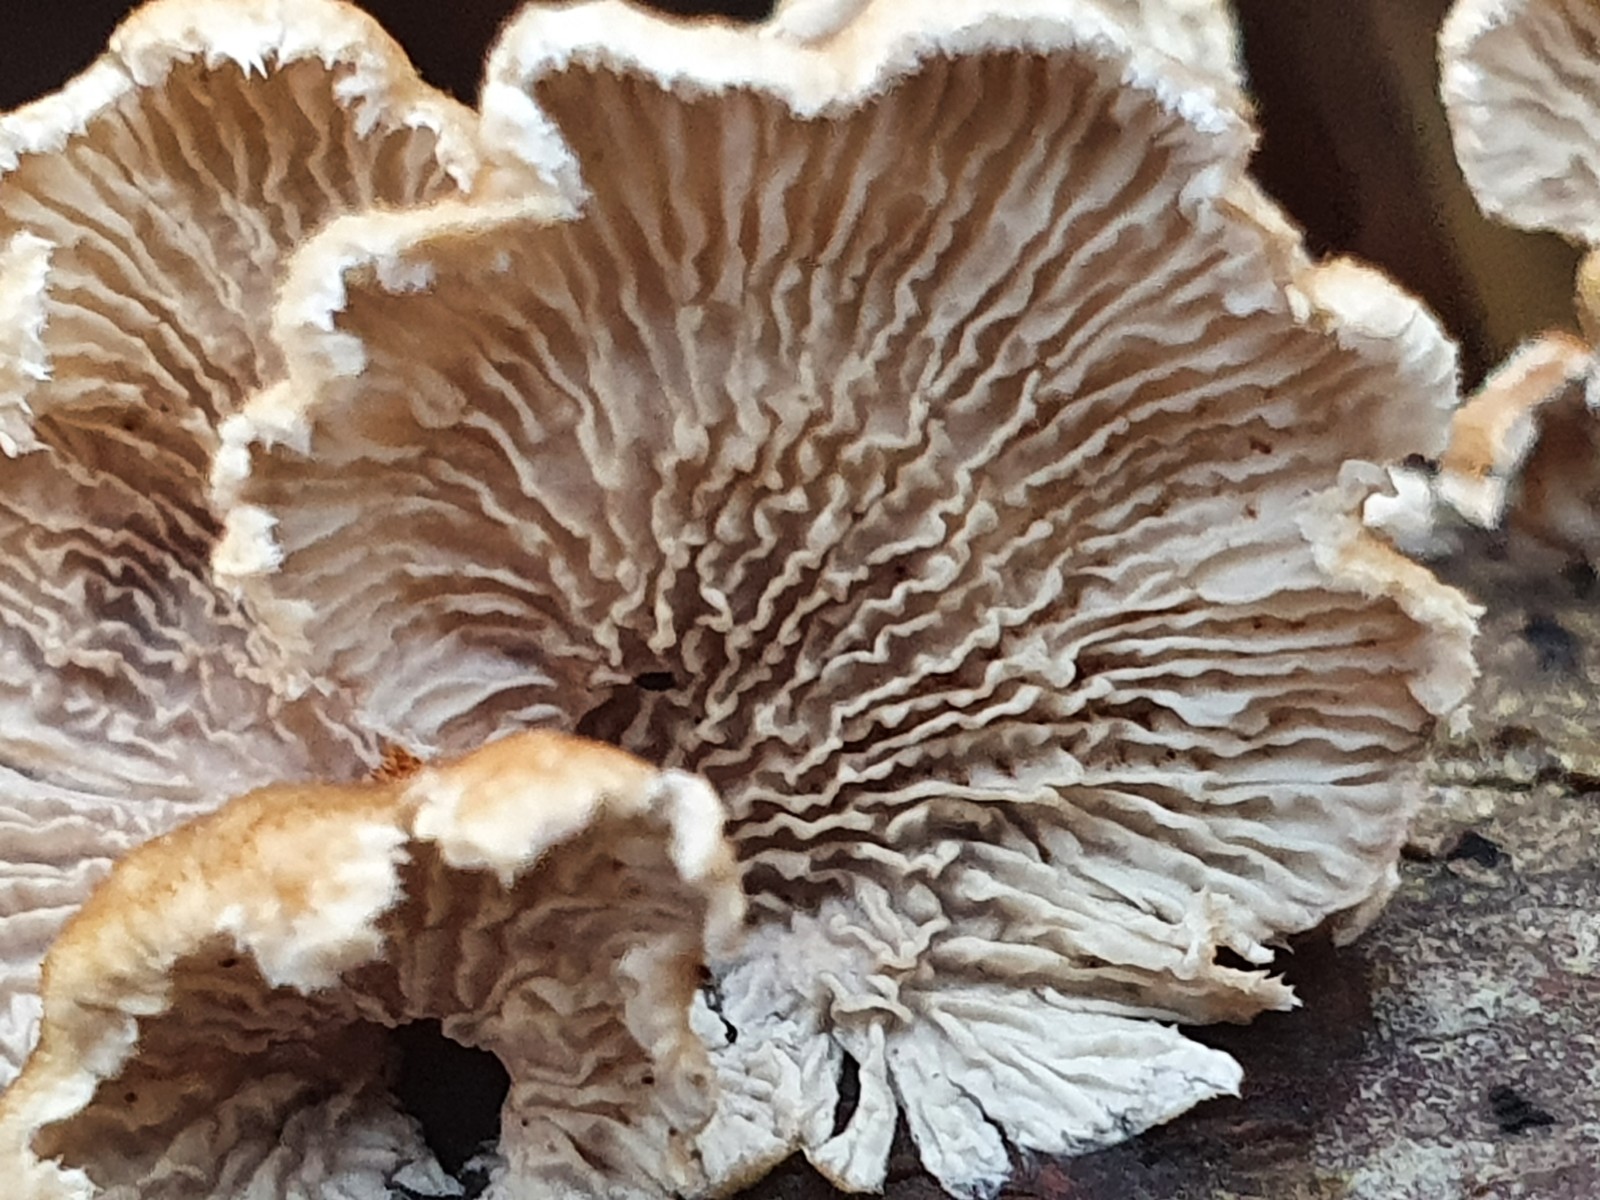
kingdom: Fungi
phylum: Basidiomycota
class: Agaricomycetes
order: Amylocorticiales
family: Amylocorticiaceae
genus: Plicaturopsis
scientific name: Plicaturopsis crispa
